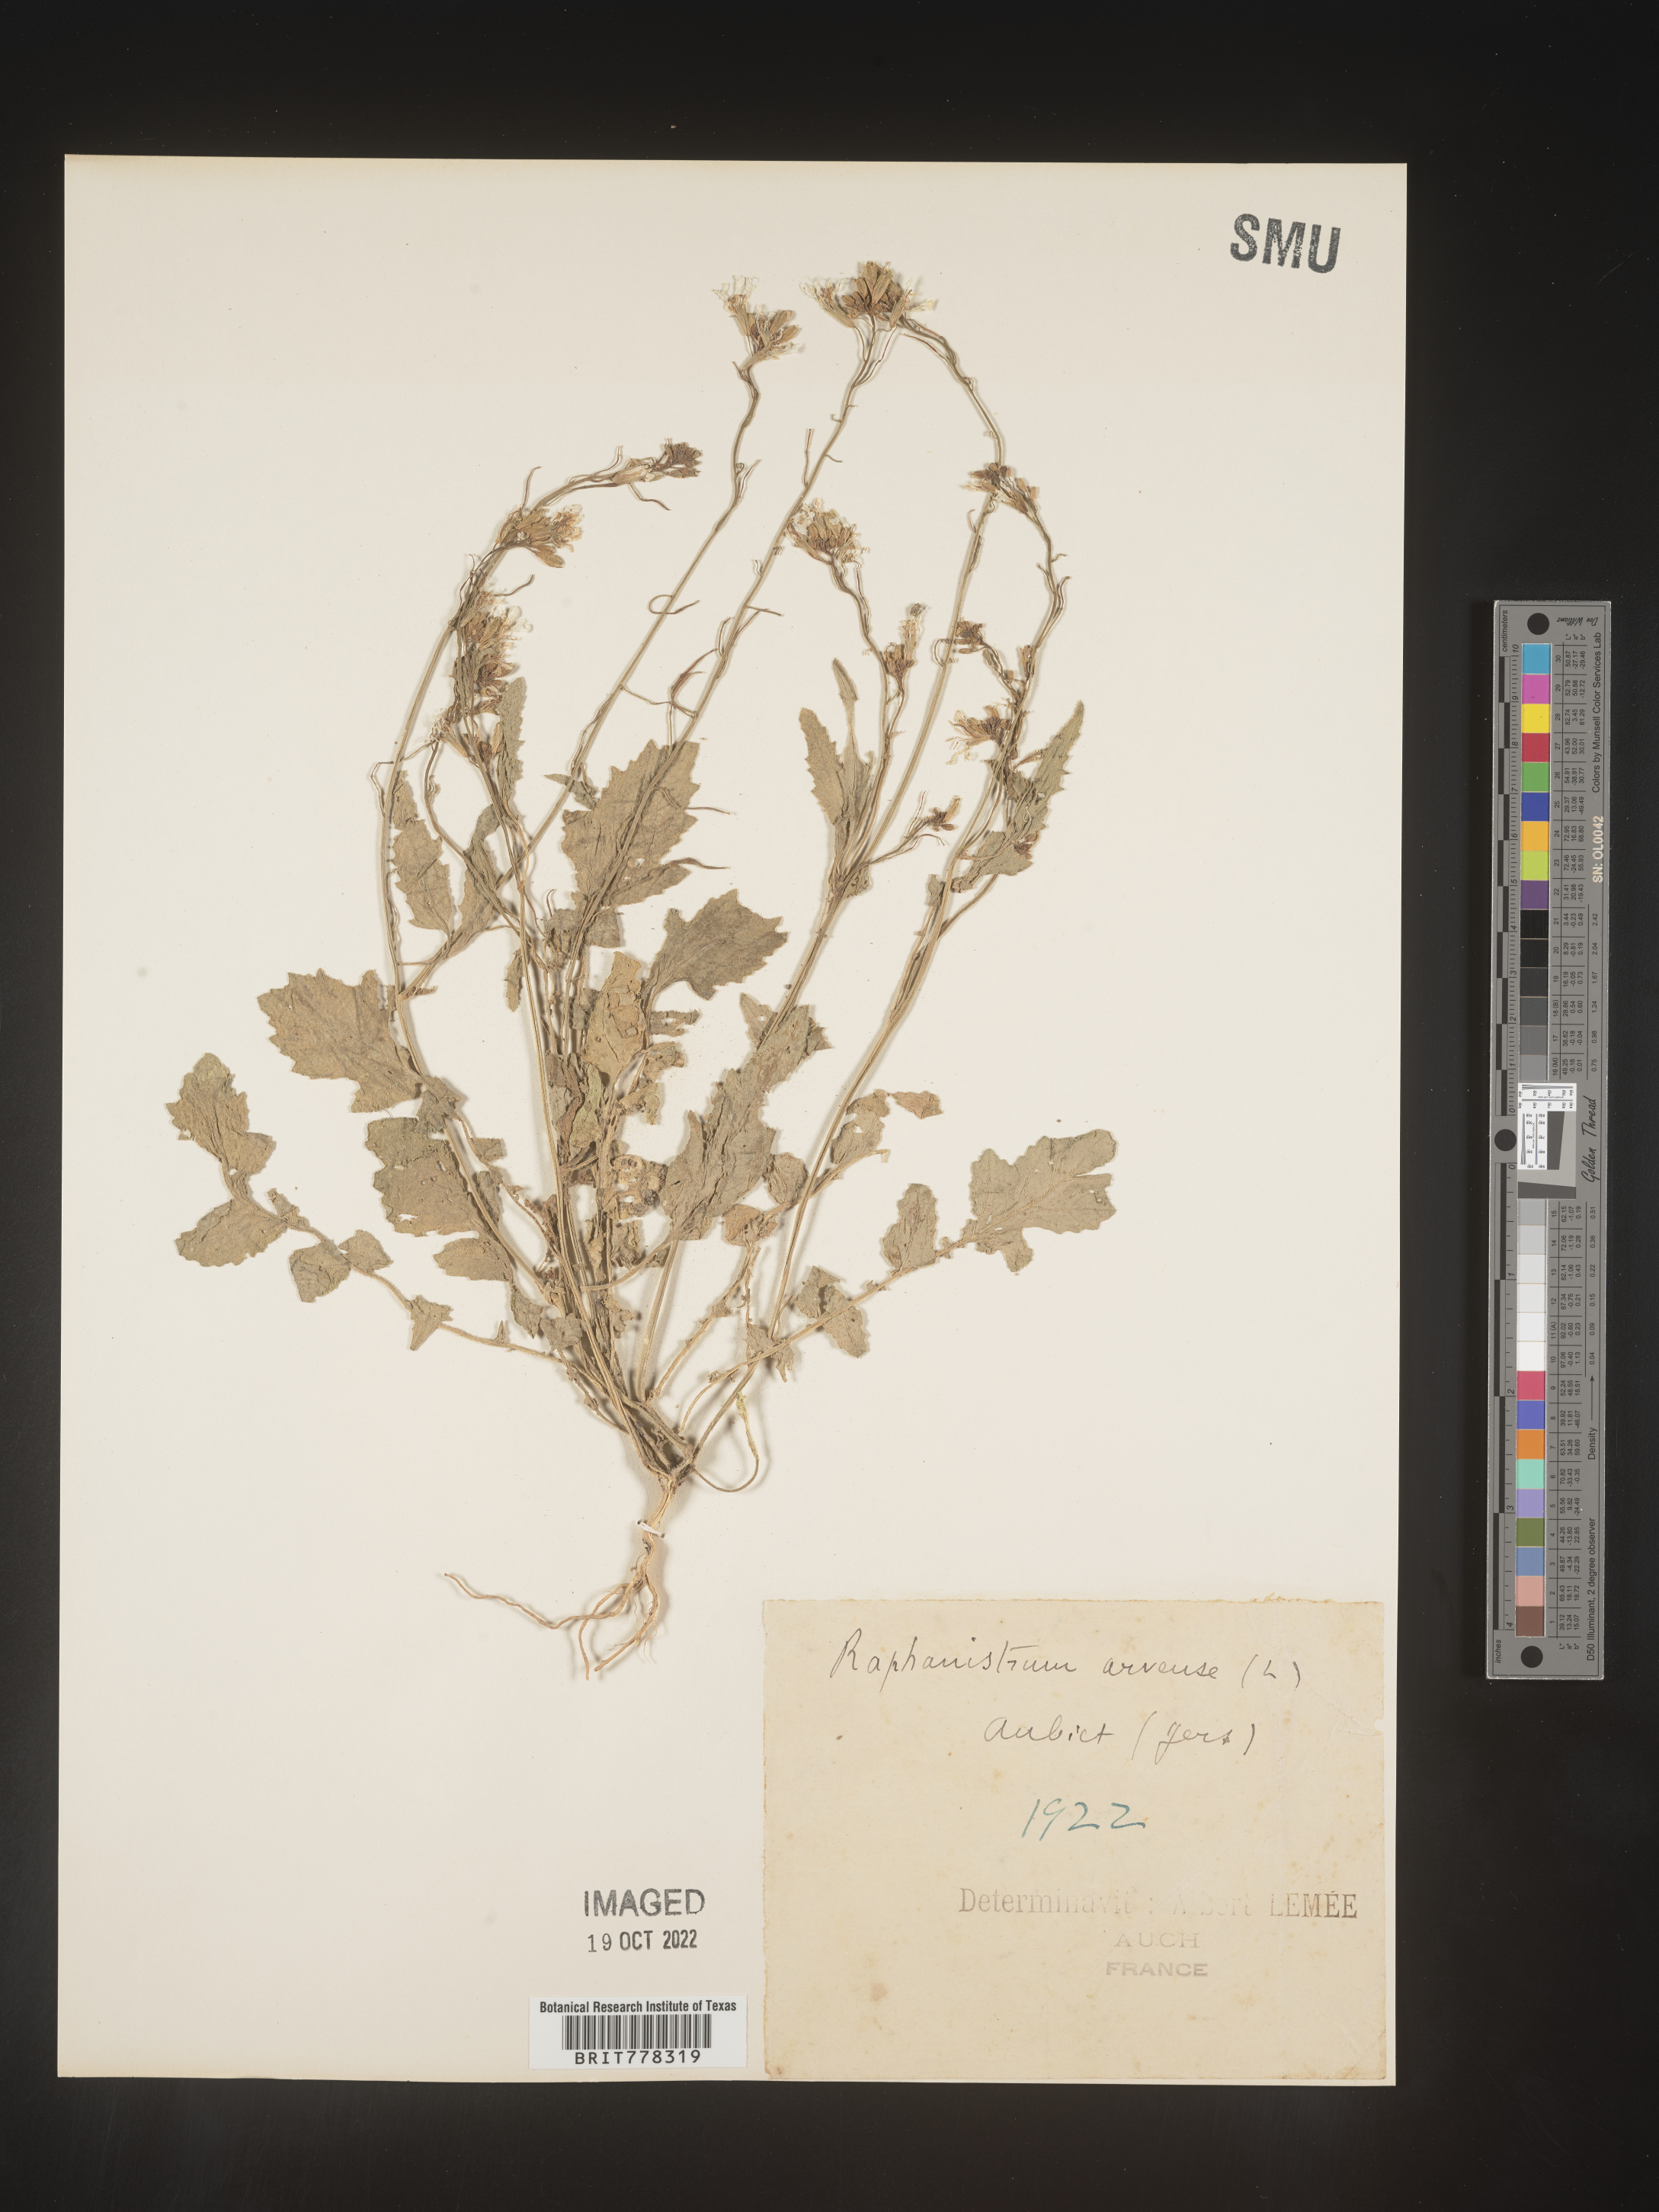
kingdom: Plantae
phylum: Tracheophyta
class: Magnoliopsida
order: Brassicales
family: Brassicaceae
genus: Raphanistrum
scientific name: Raphanistrum
